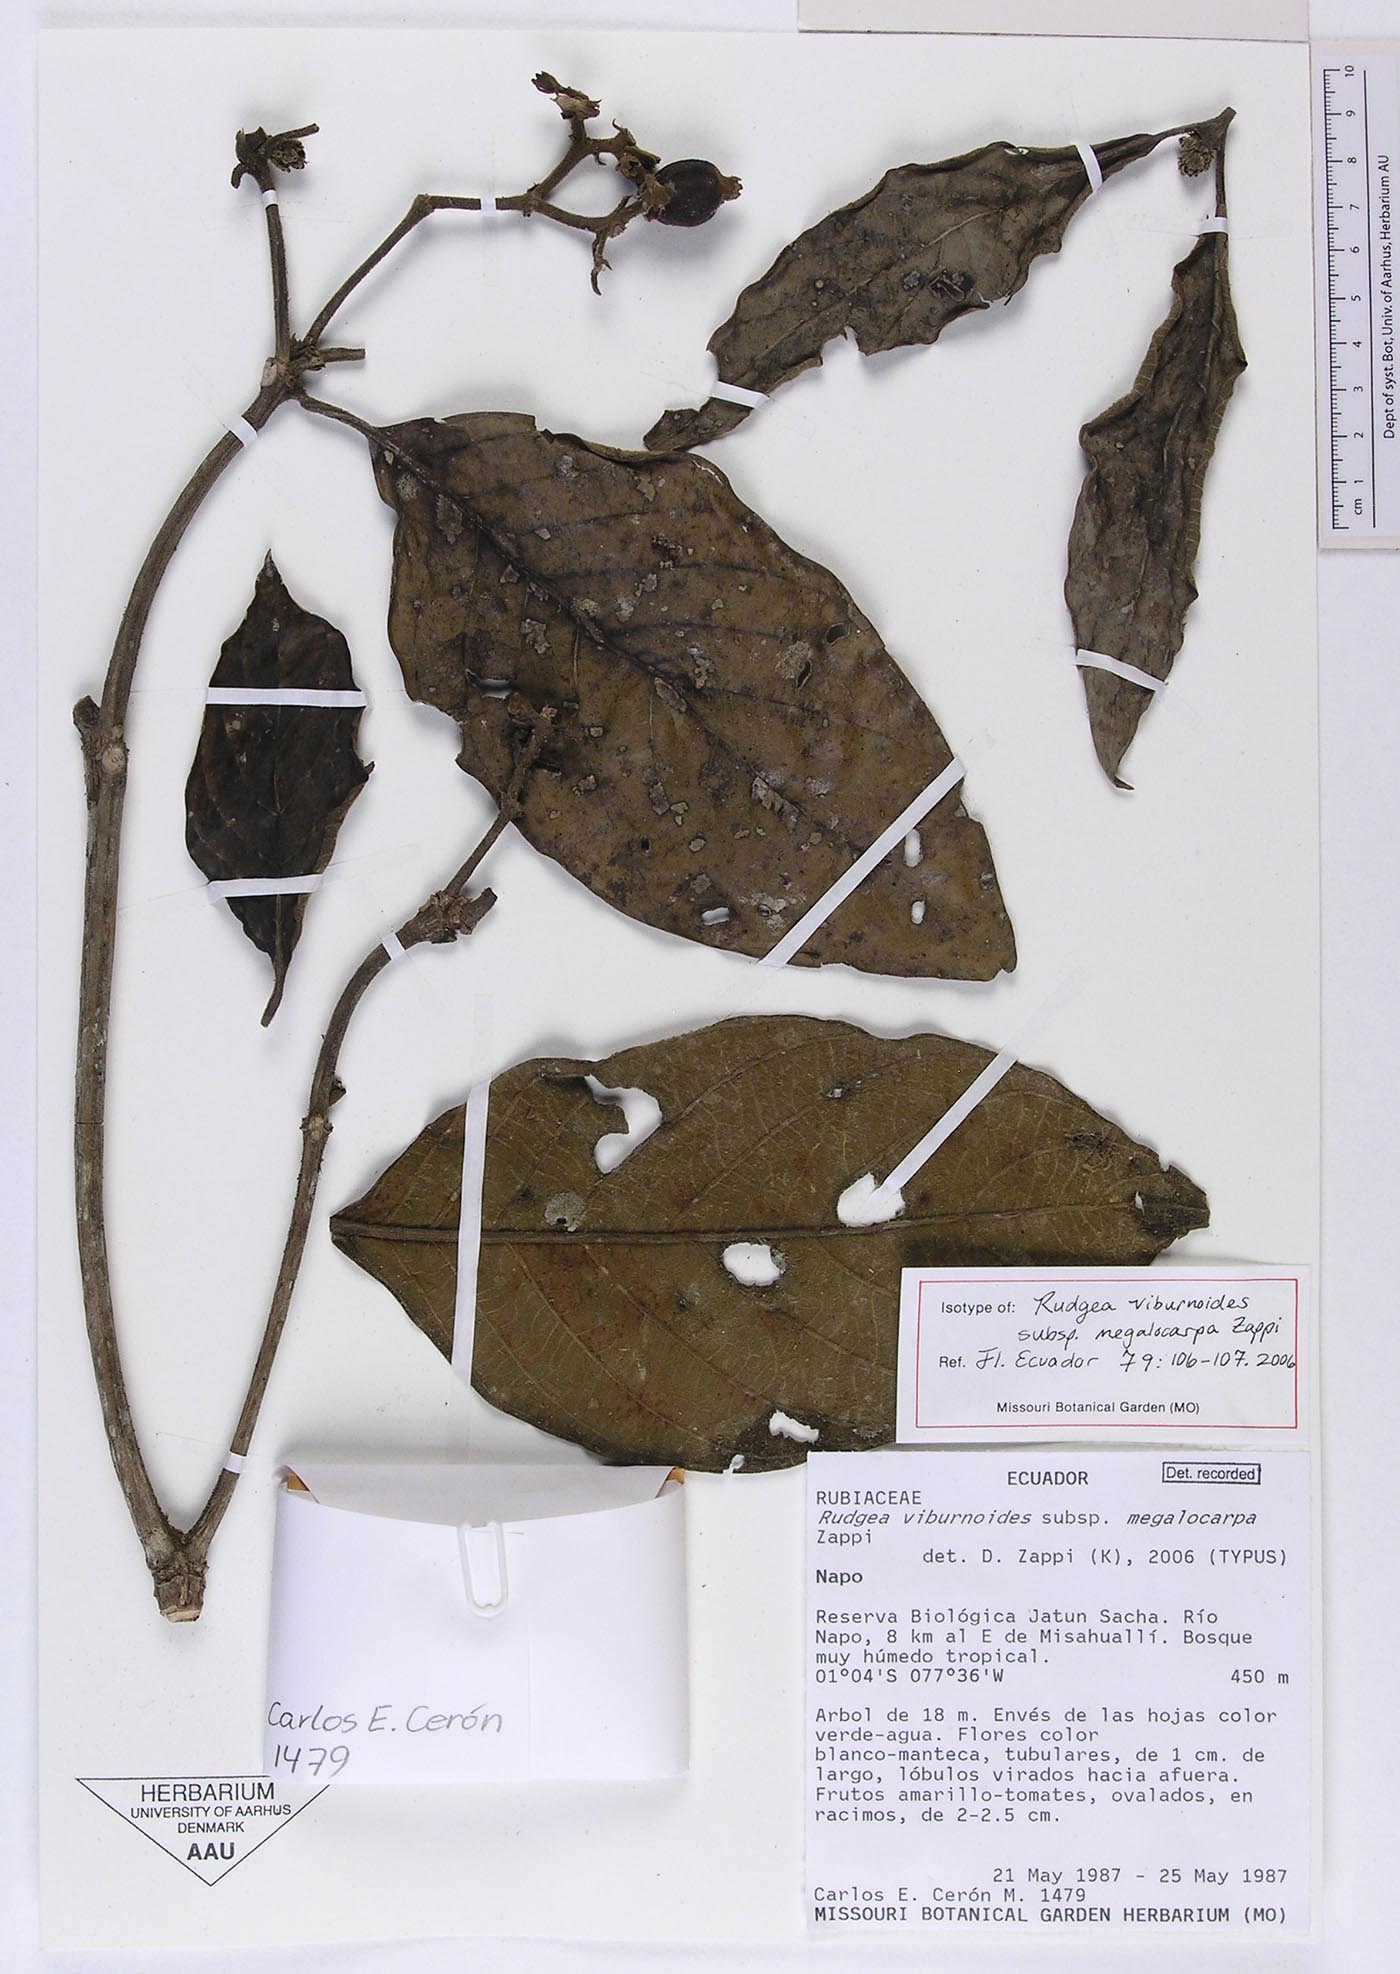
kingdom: Plantae
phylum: Tracheophyta
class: Magnoliopsida
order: Gentianales
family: Rubiaceae
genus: Rudgea
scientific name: Rudgea viburnoides
